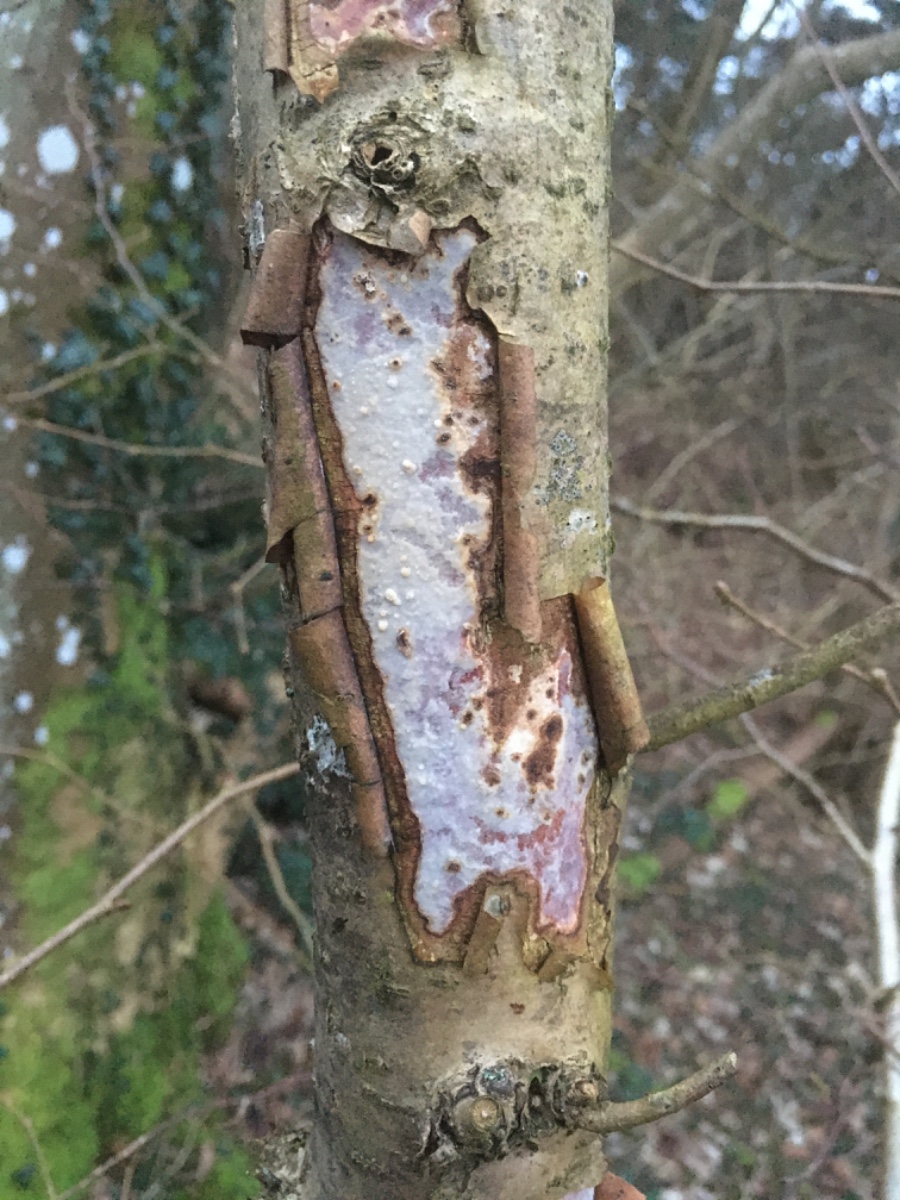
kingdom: Fungi
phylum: Basidiomycota
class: Agaricomycetes
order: Corticiales
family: Vuilleminiaceae
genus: Vuilleminia
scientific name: Vuilleminia coryli
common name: hassel-barksprænger
